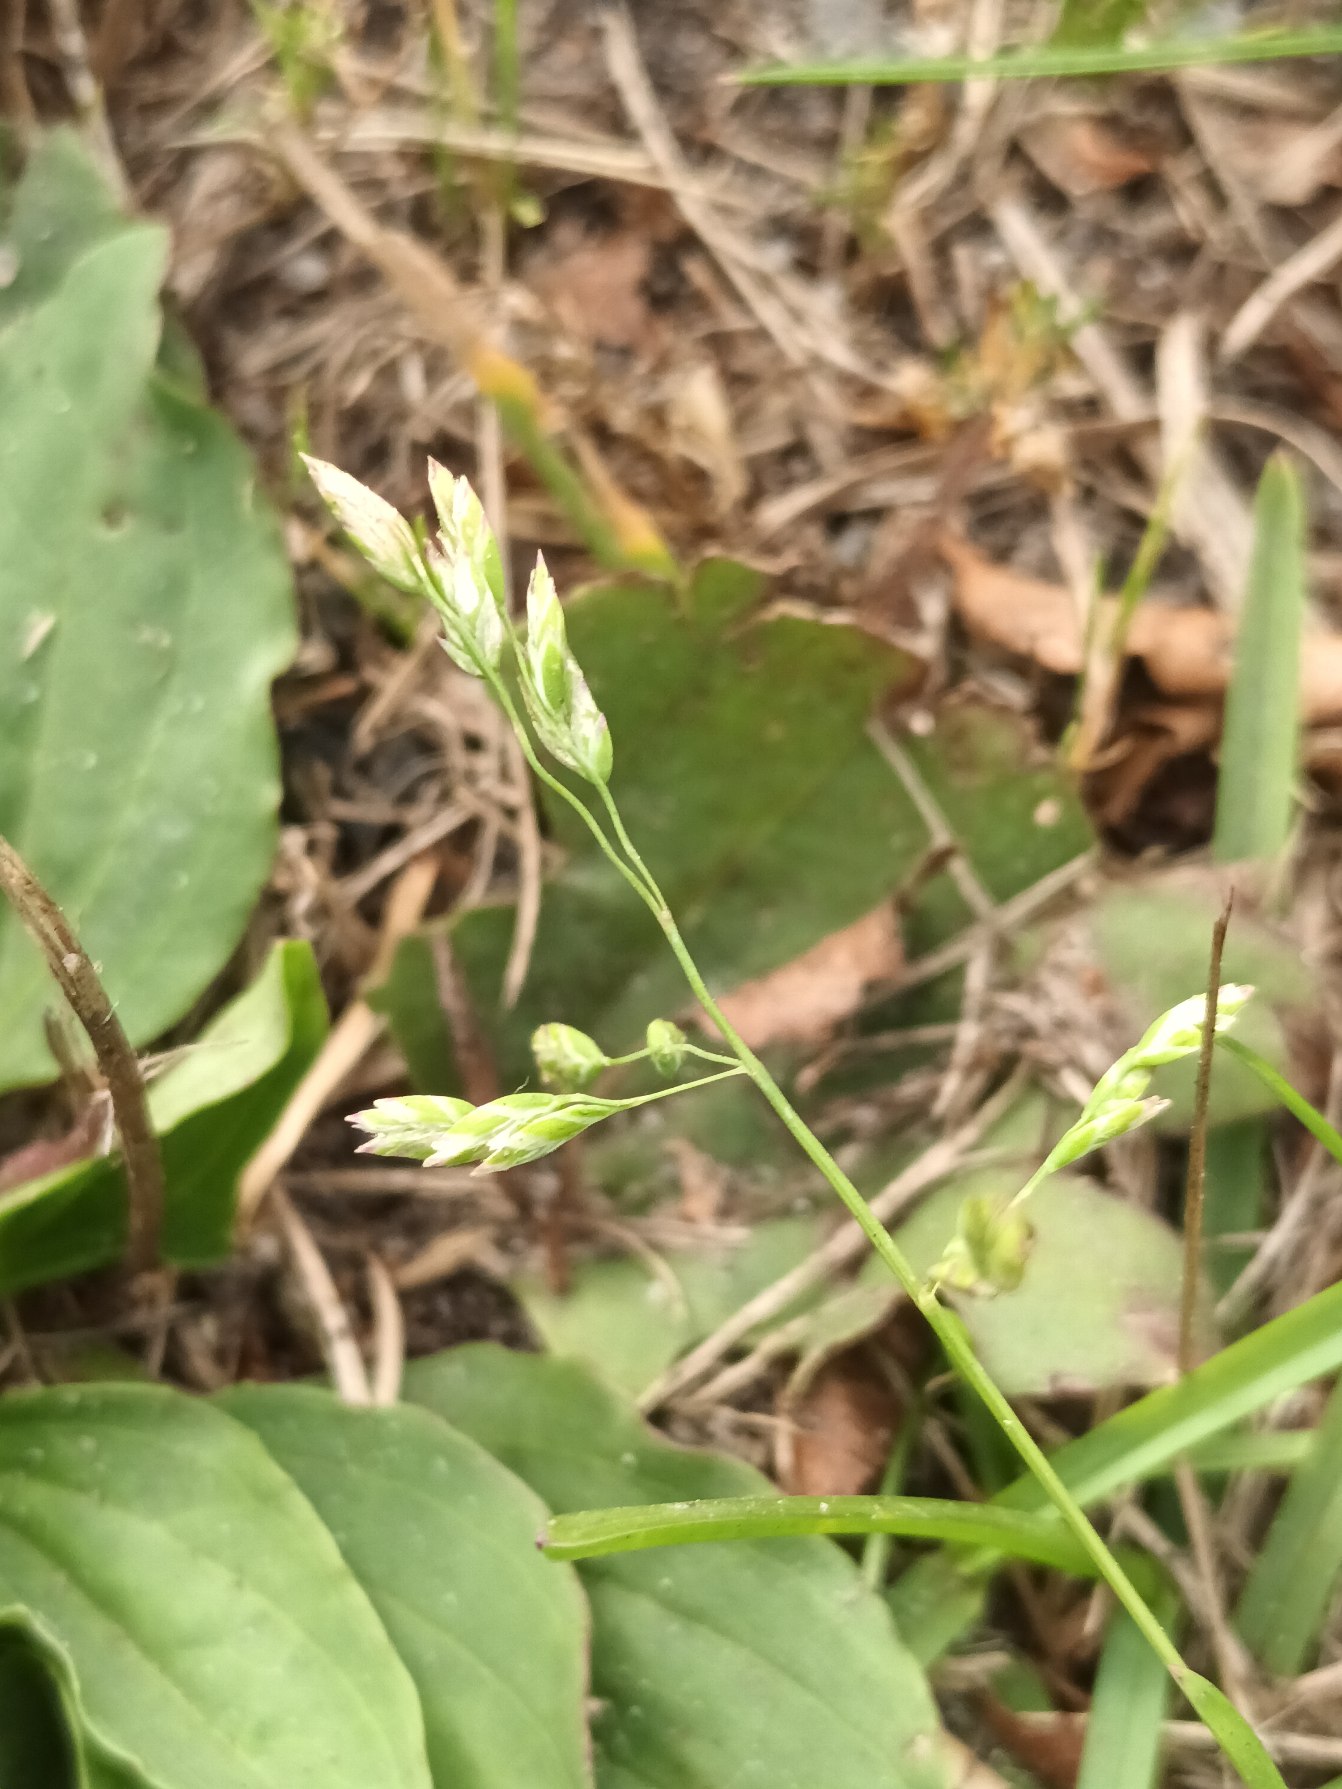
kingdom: Plantae
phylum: Tracheophyta
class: Liliopsida
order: Poales
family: Poaceae
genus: Poa
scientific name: Poa annua
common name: Enårig rapgræs
